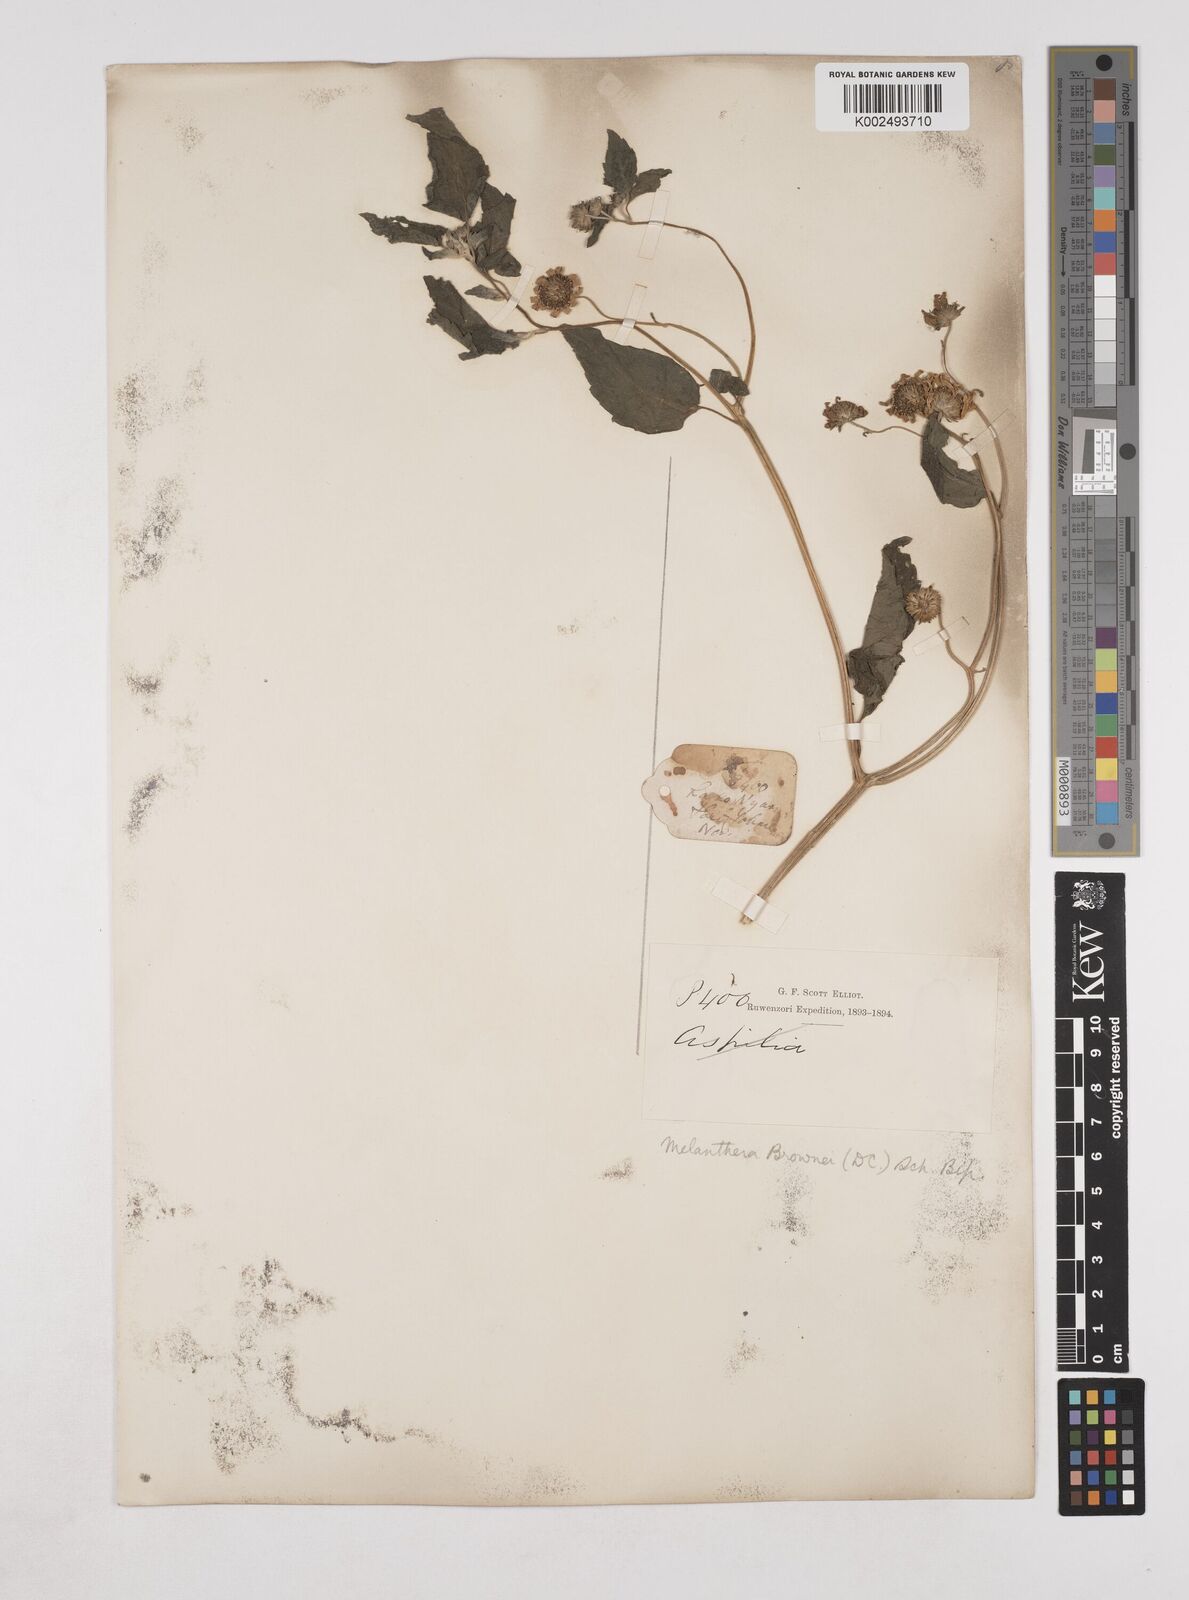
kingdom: Plantae
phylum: Tracheophyta
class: Magnoliopsida
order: Asterales
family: Asteraceae
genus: Lipotriche
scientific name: Lipotriche scandens
